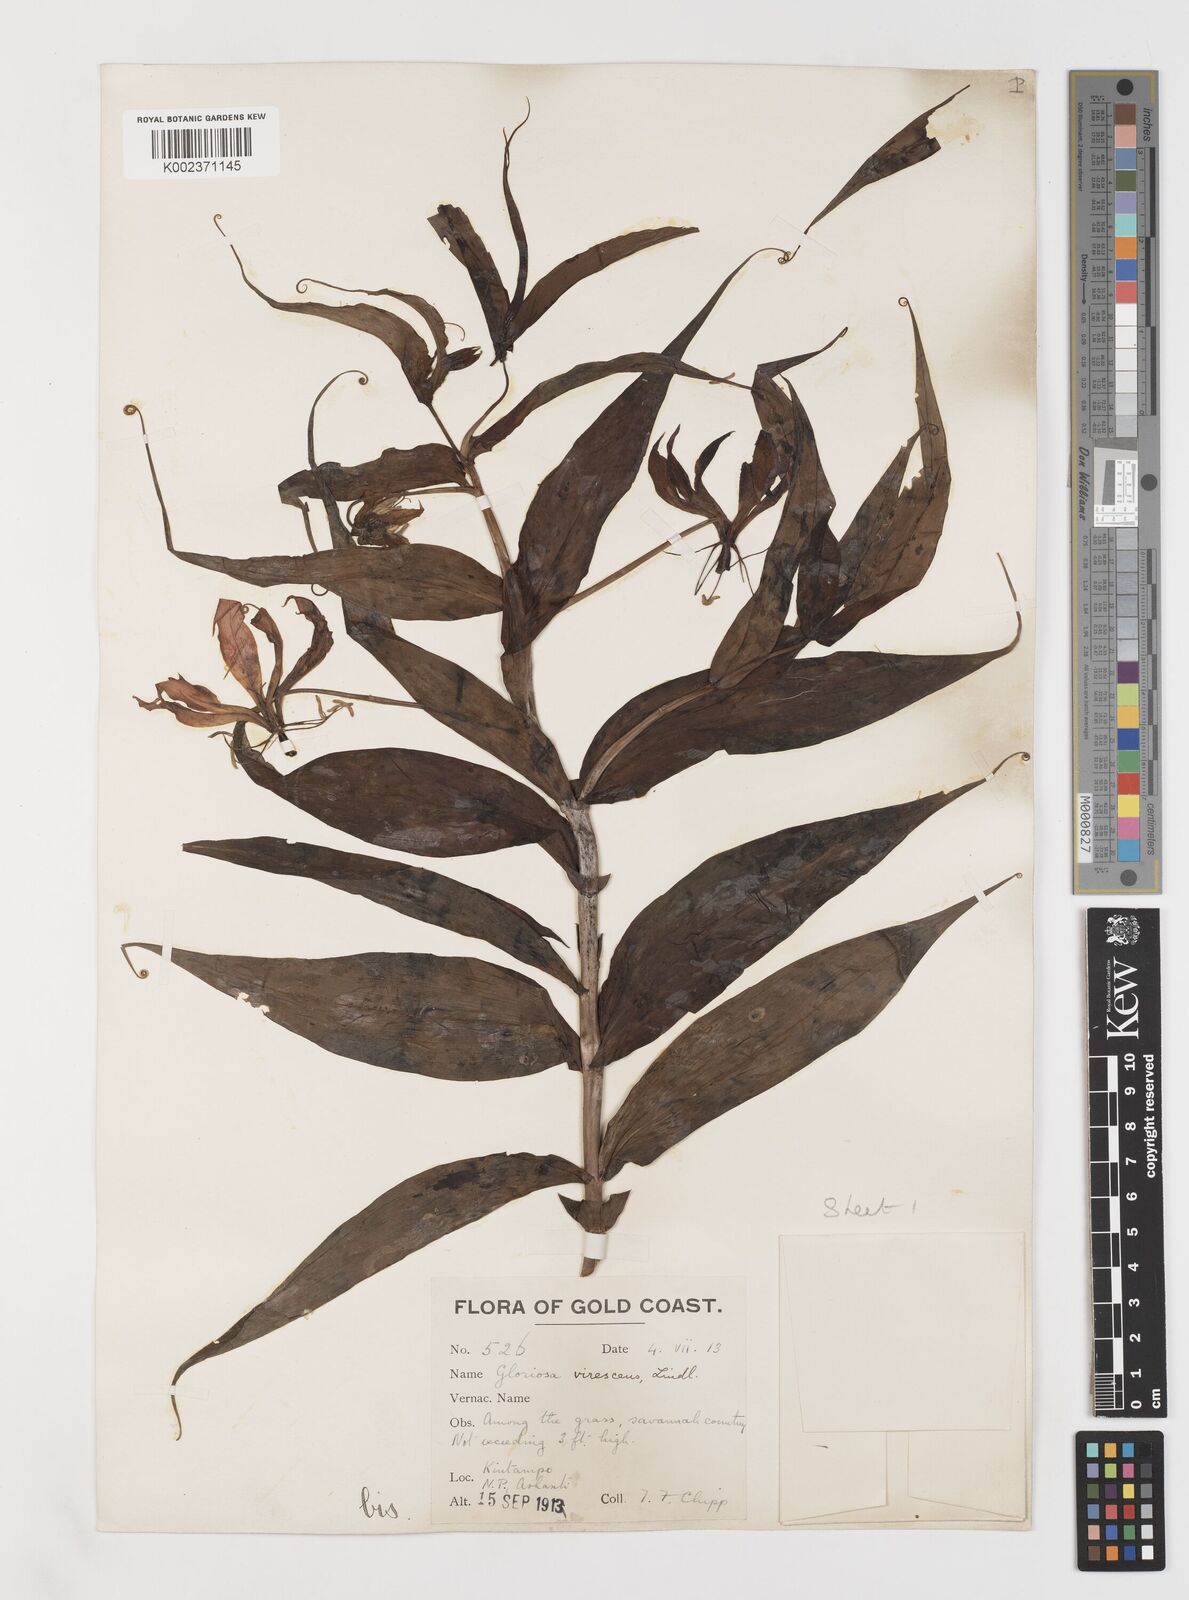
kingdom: Plantae
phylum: Tracheophyta
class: Liliopsida
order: Liliales
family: Colchicaceae
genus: Gloriosa
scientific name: Gloriosa simplex
